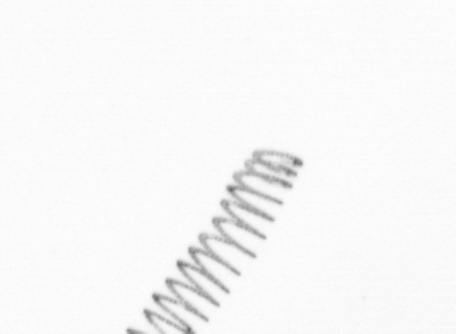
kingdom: Chromista
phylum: Ochrophyta
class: Bacillariophyceae
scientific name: Bacillariophyceae
